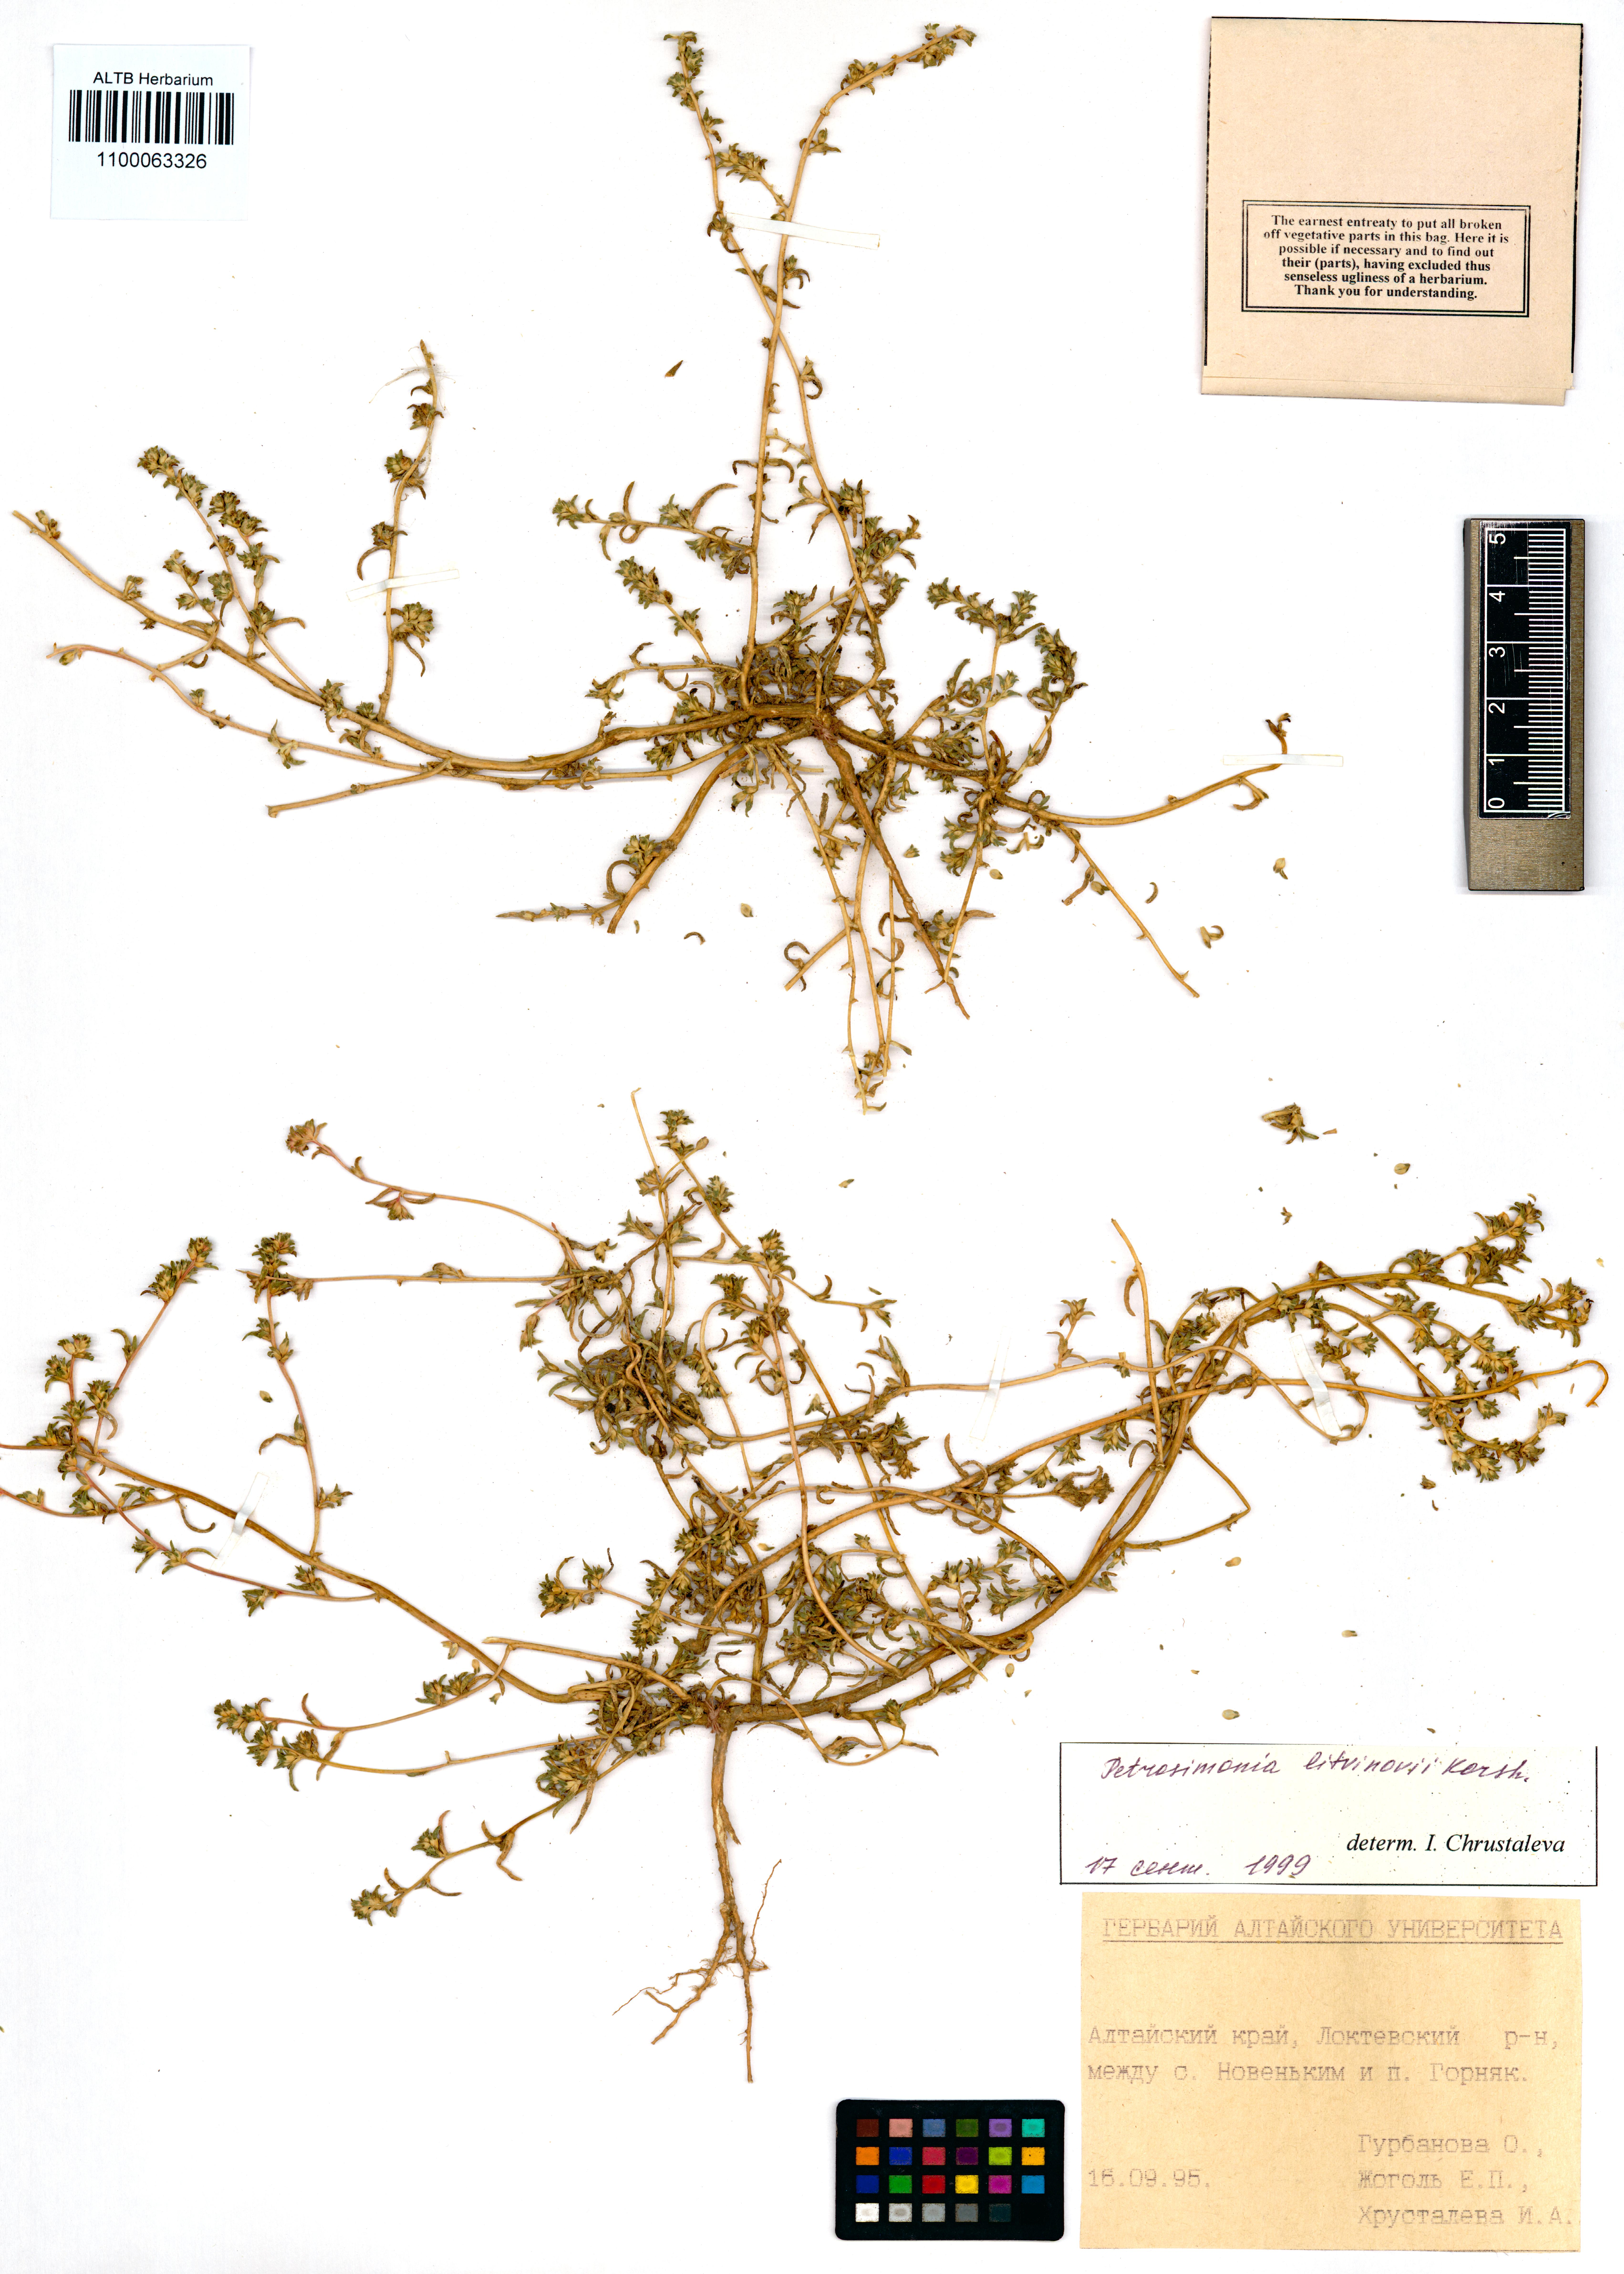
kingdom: Plantae
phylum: Tracheophyta
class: Magnoliopsida
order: Caryophyllales
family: Amaranthaceae
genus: Petrosimonia
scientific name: Petrosimonia litvinowi
